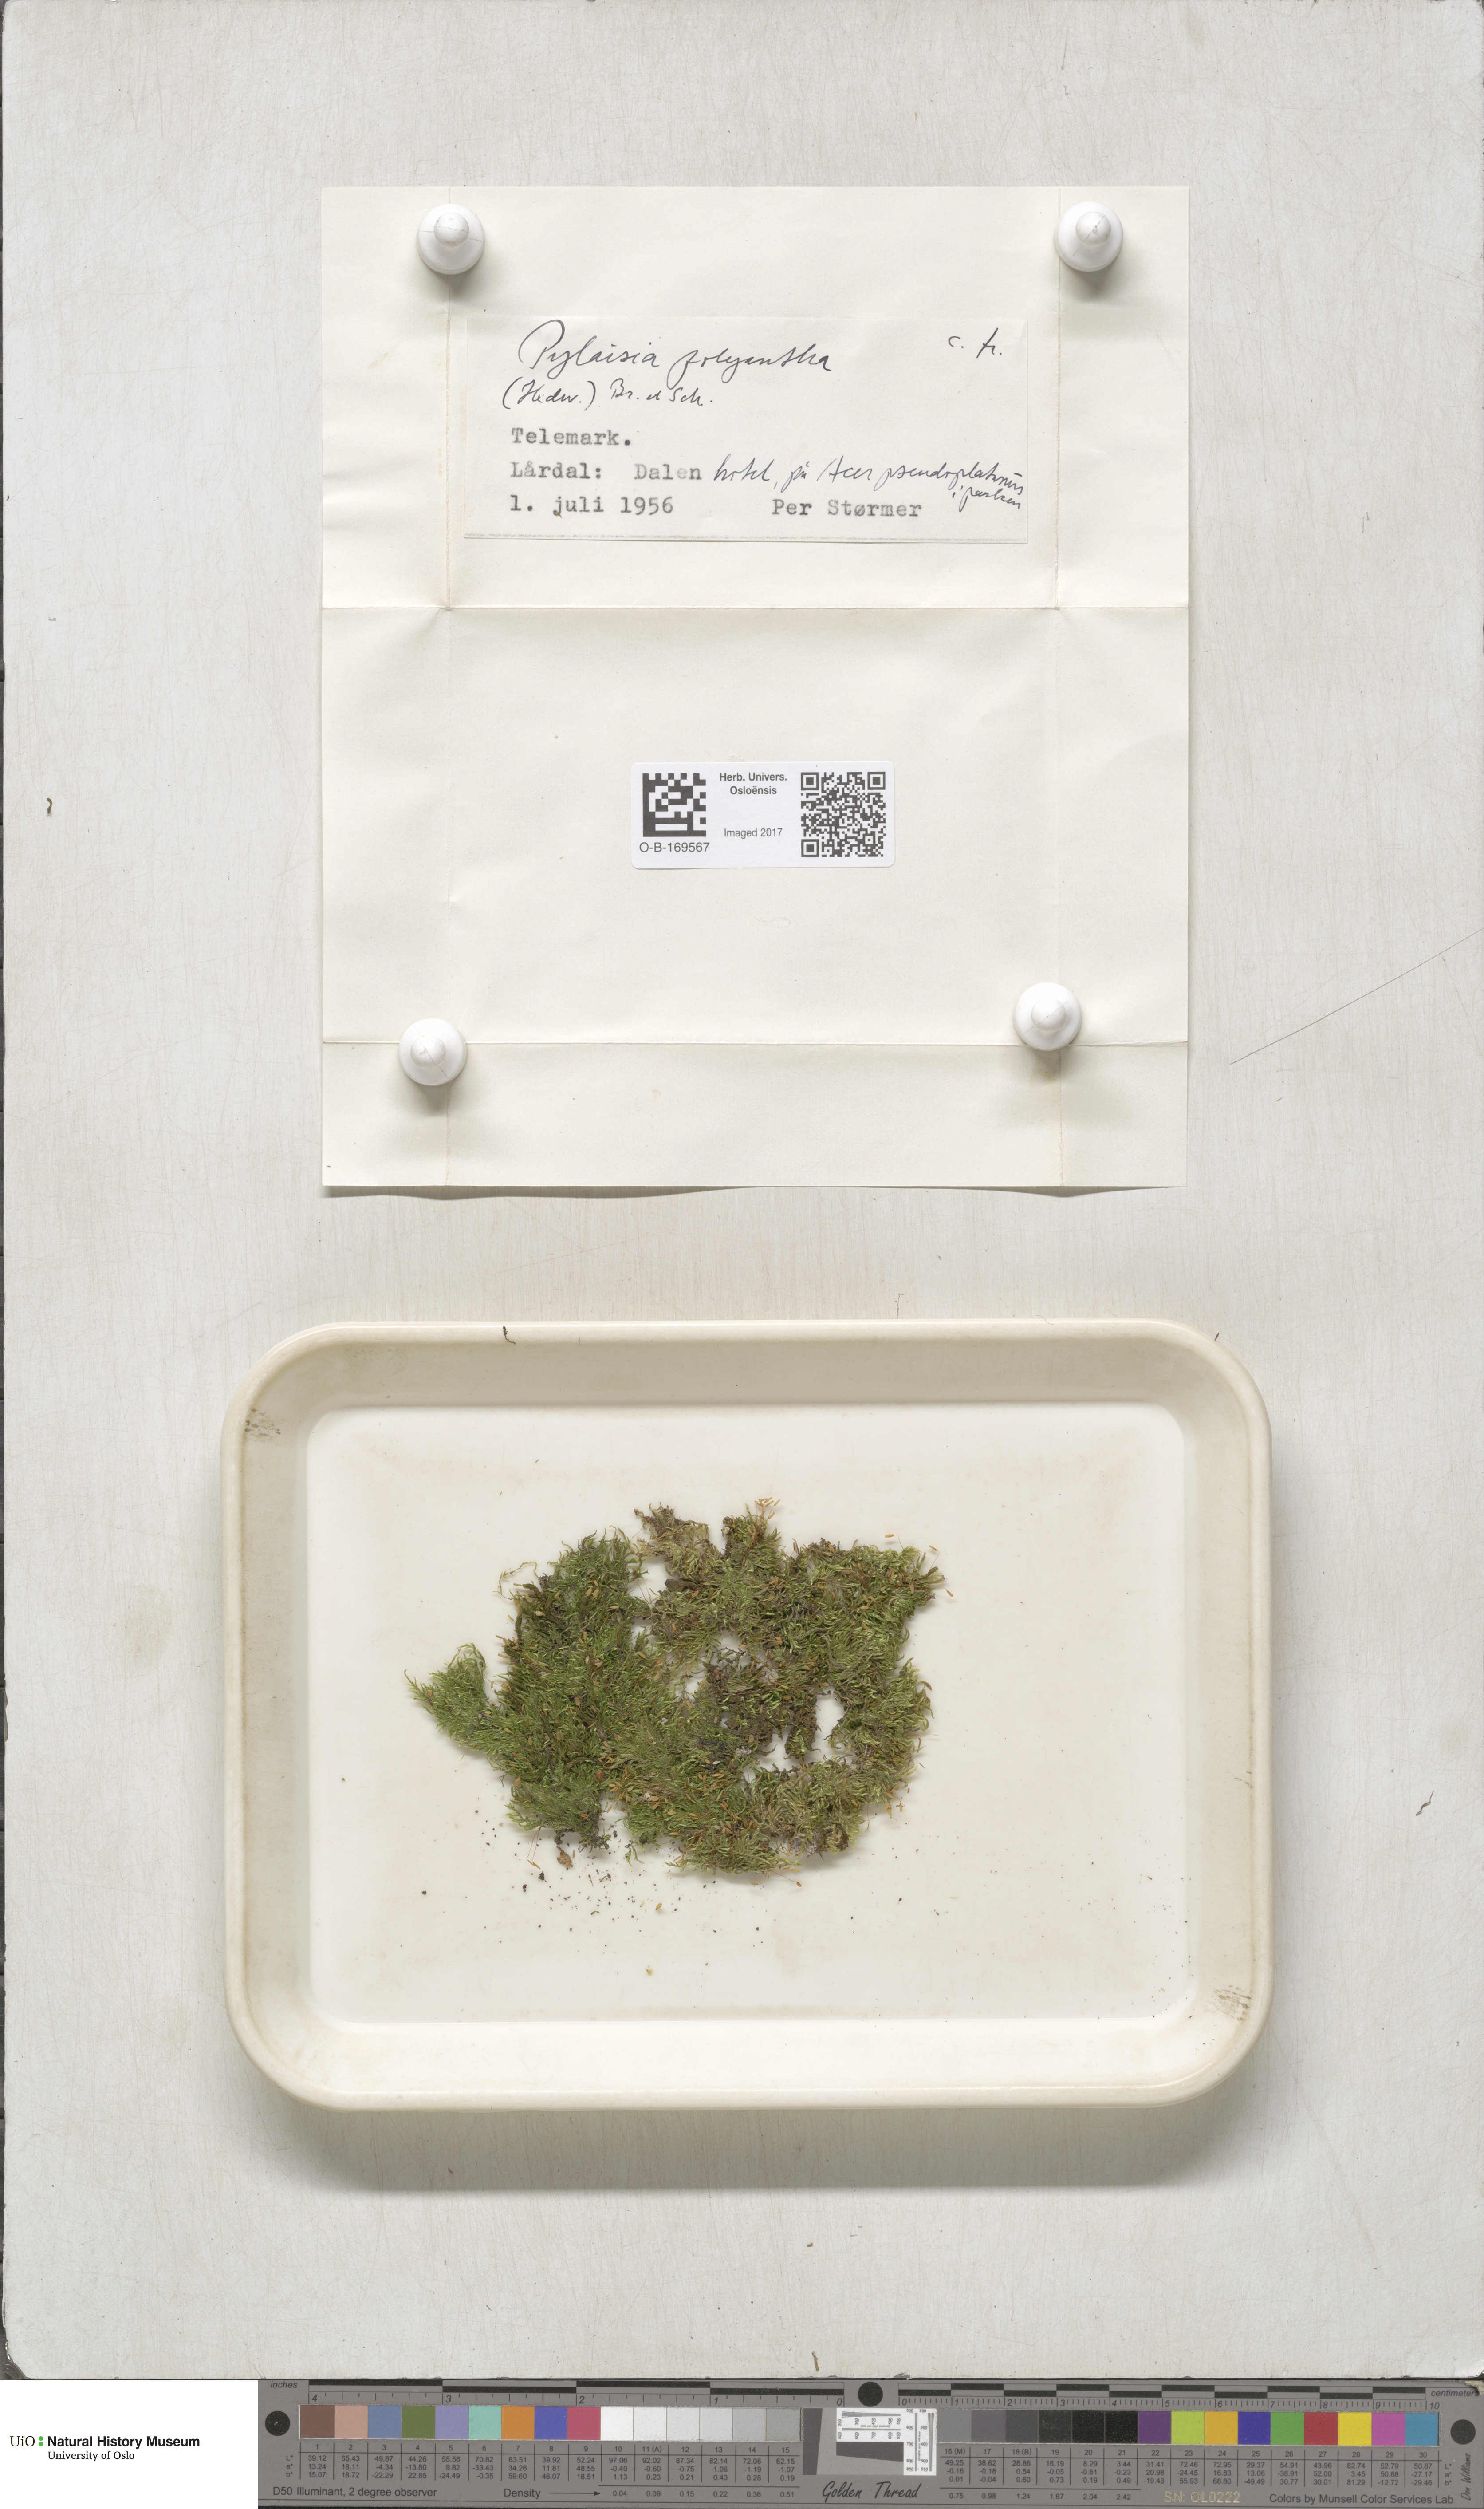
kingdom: Plantae
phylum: Bryophyta
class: Bryopsida
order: Hypnales
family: Pylaisiaceae
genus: Pylaisia
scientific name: Pylaisia polyantha
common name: Many-flowered leskea
